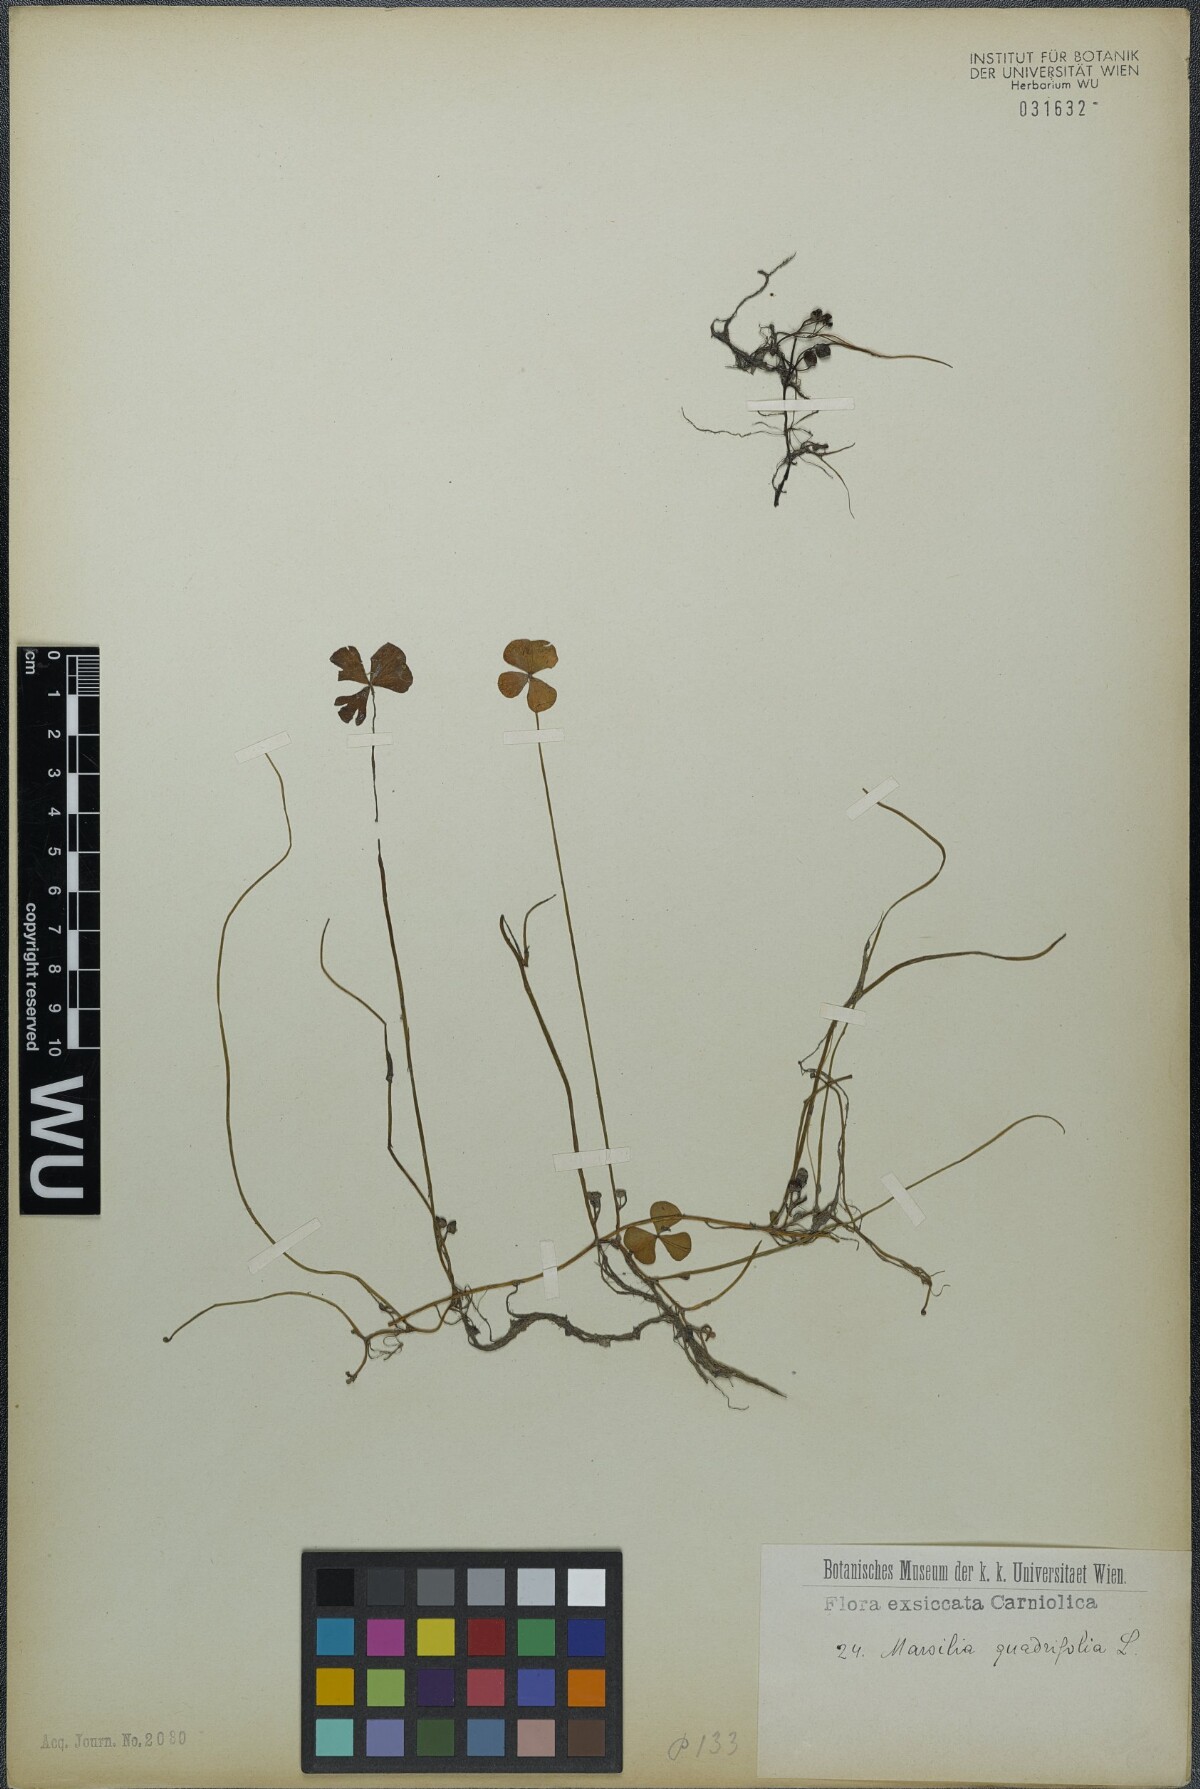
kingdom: Plantae
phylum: Tracheophyta
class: Polypodiopsida
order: Salviniales
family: Marsileaceae
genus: Marsilea
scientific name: Marsilea quadrifolia
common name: Water shamrock
